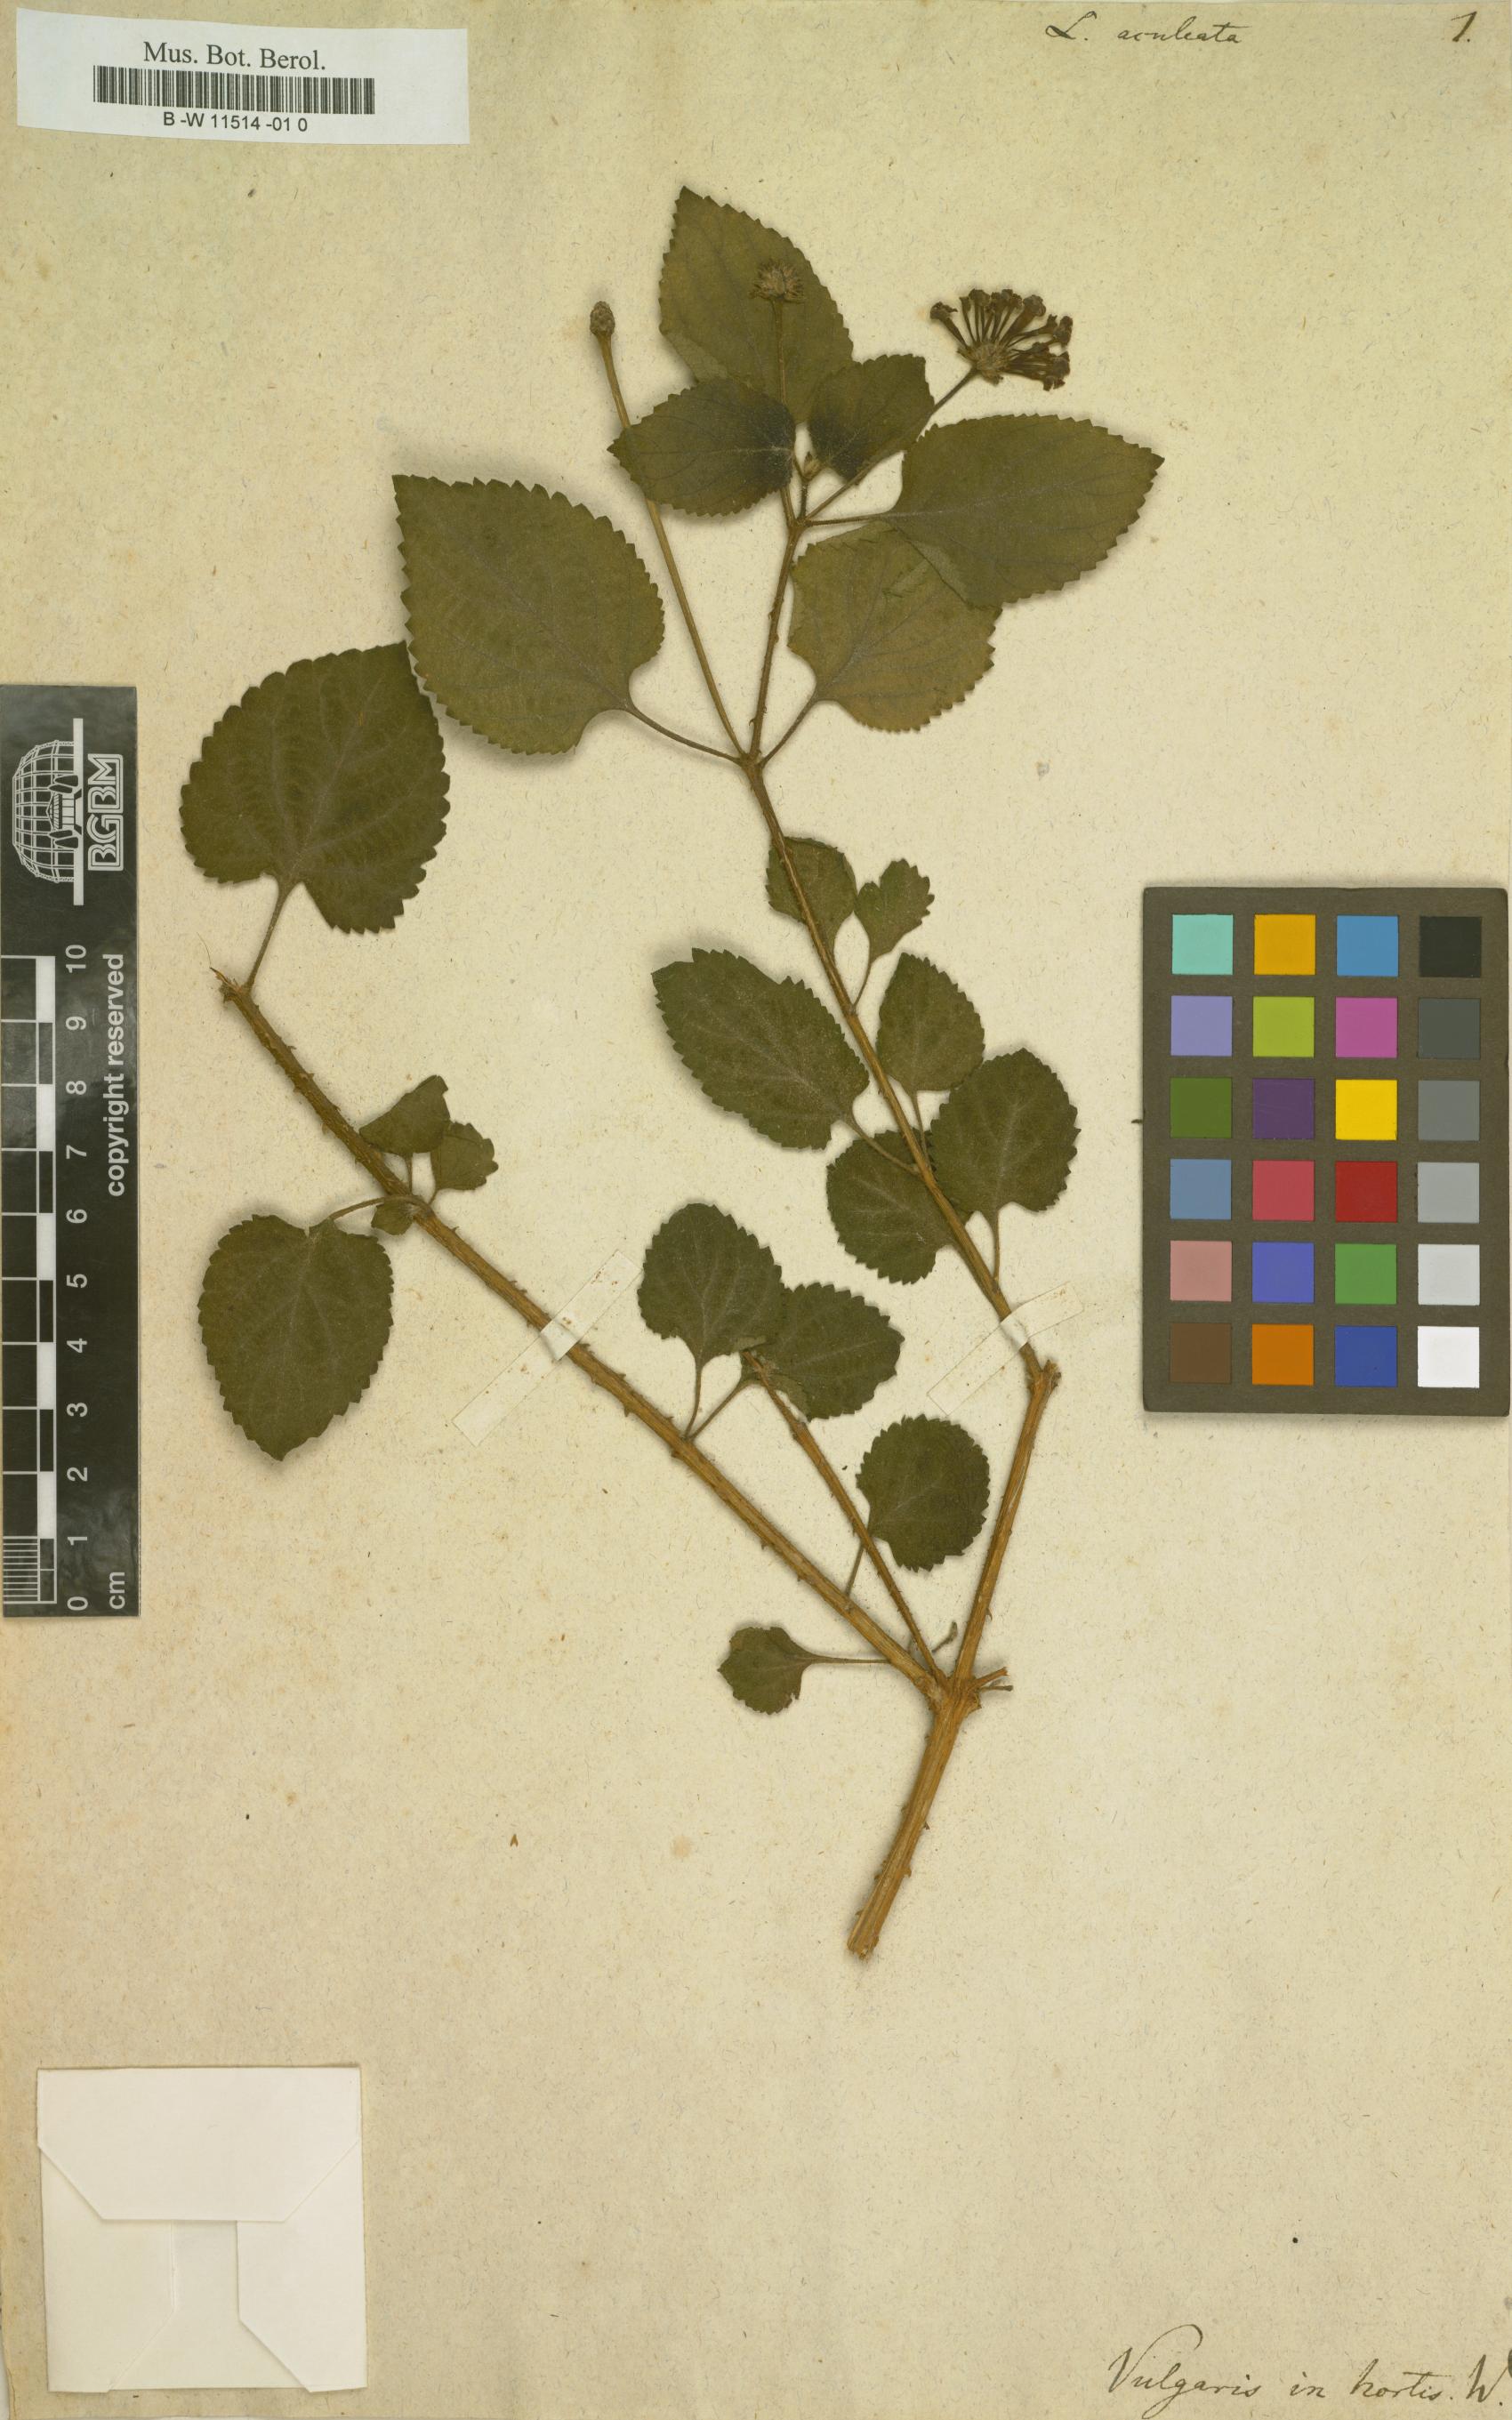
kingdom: Plantae
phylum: Tracheophyta
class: Magnoliopsida
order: Lamiales
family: Verbenaceae
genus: Lantana
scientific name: Lantana camara
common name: Lantana
